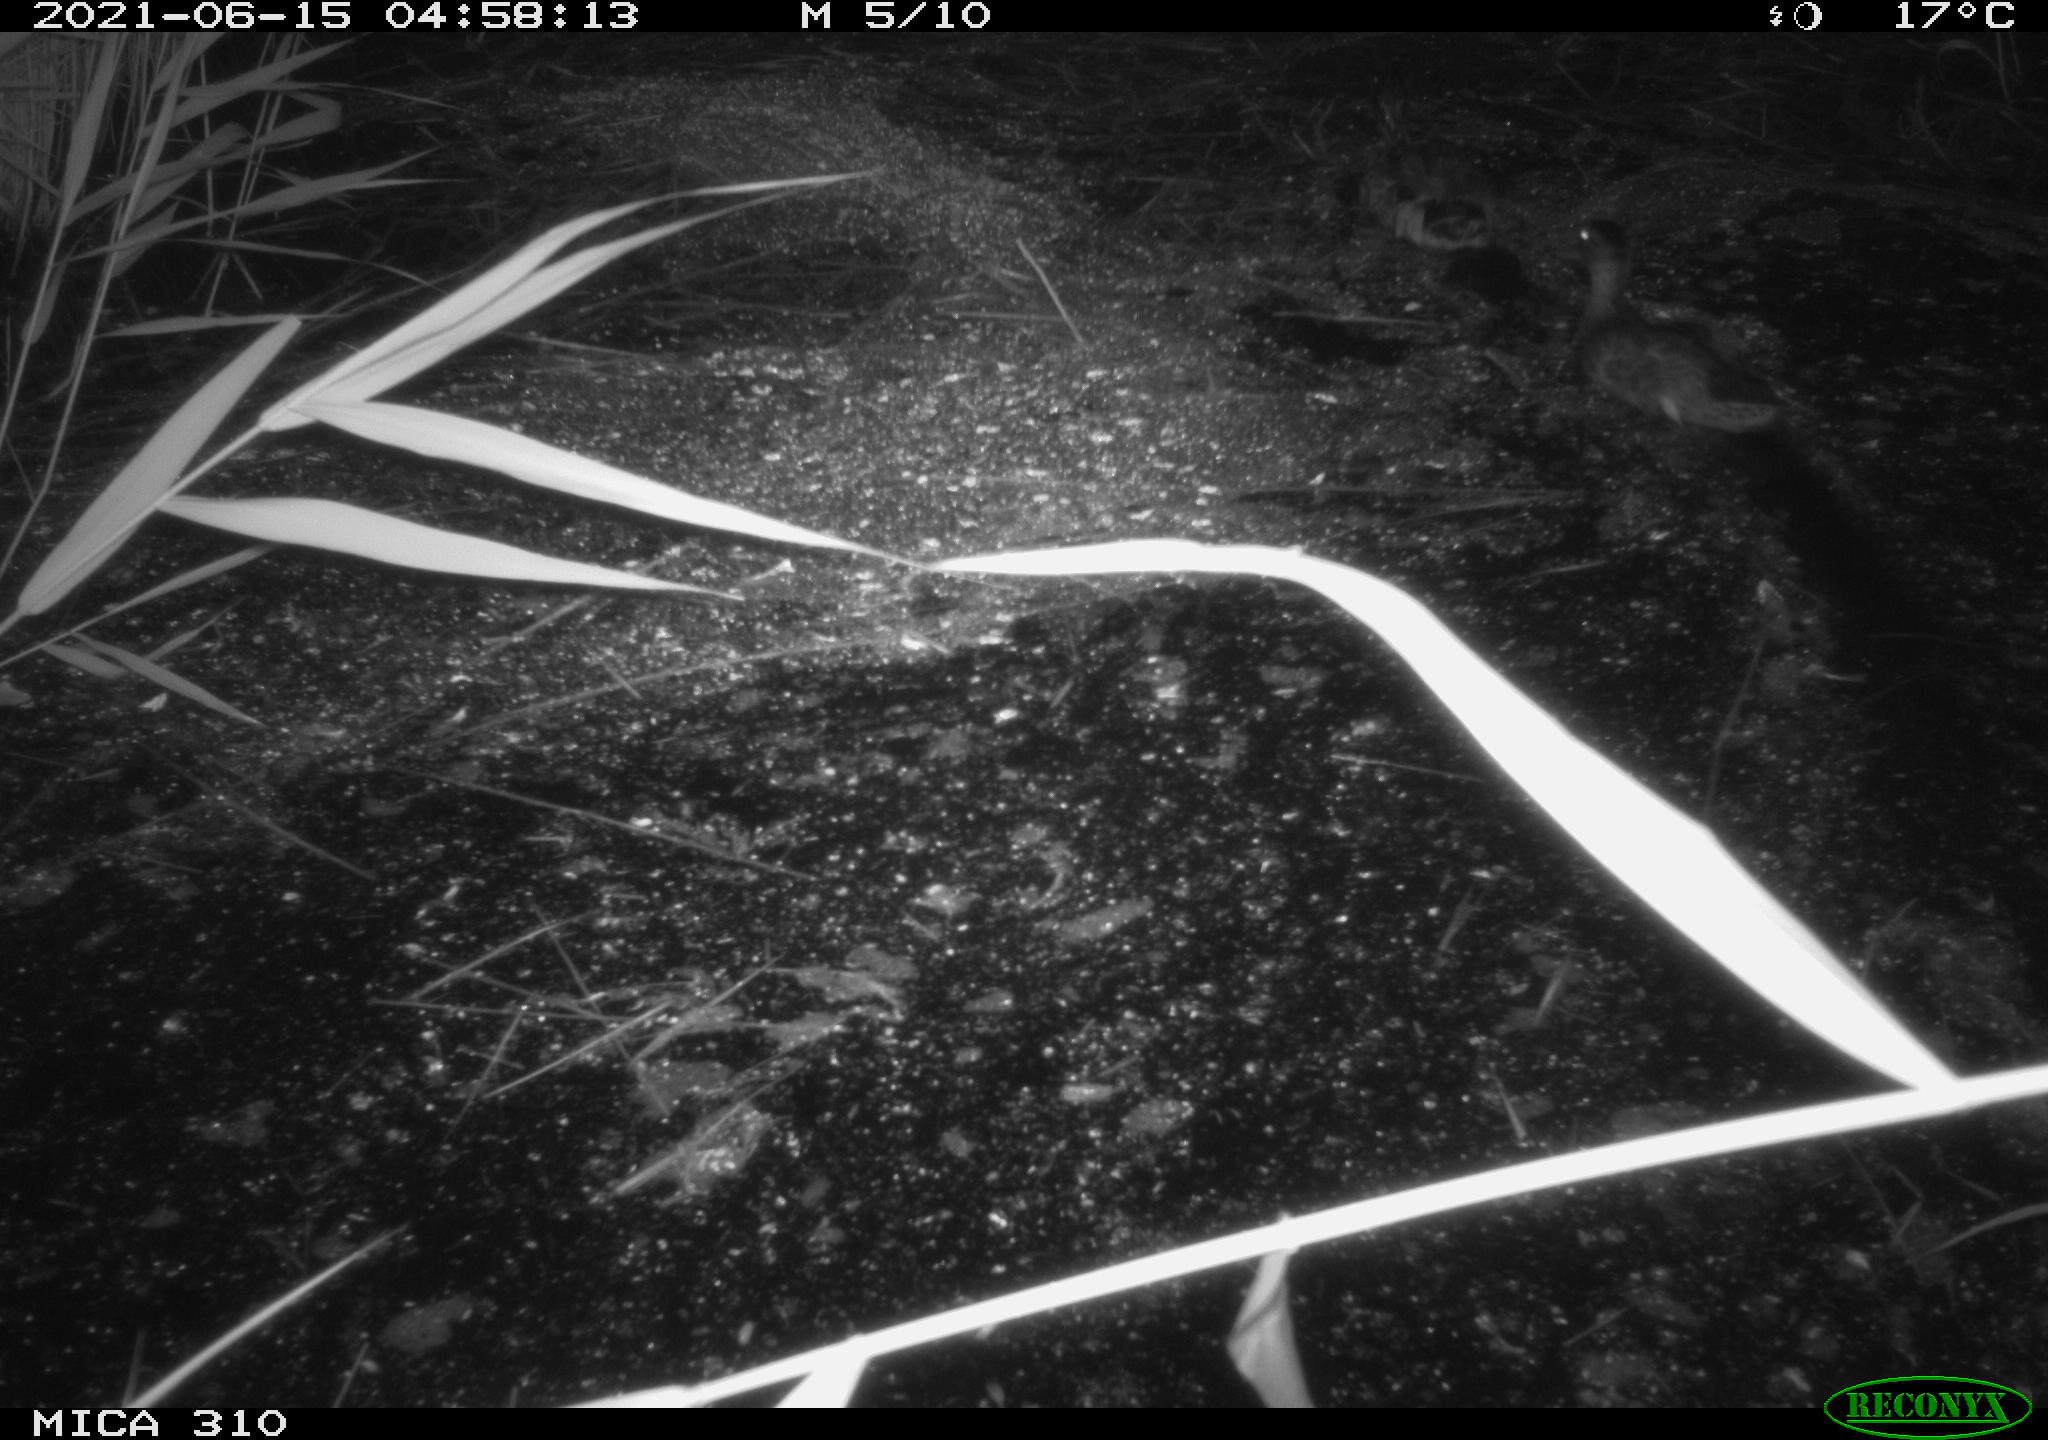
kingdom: Animalia
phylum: Chordata
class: Aves
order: Anseriformes
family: Anatidae
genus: Anas
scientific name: Anas
